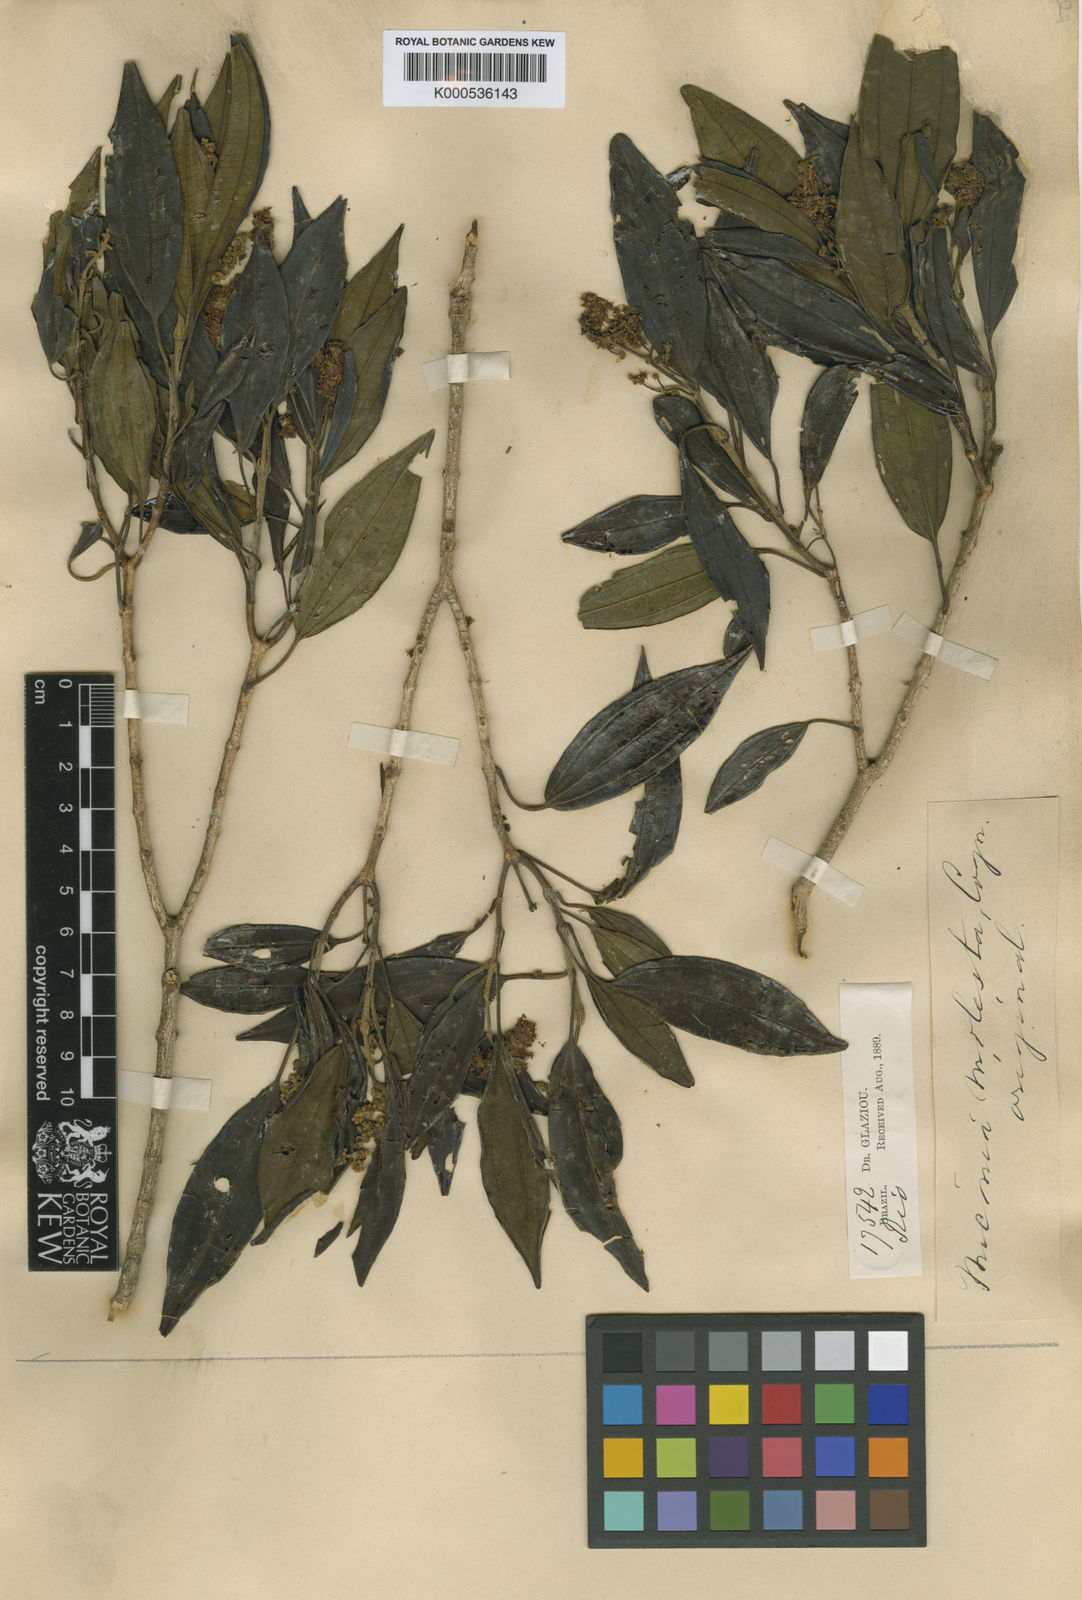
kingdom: Plantae
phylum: Tracheophyta
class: Magnoliopsida
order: Myrtales
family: Melastomataceae
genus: Miconia
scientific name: Miconia molesta
